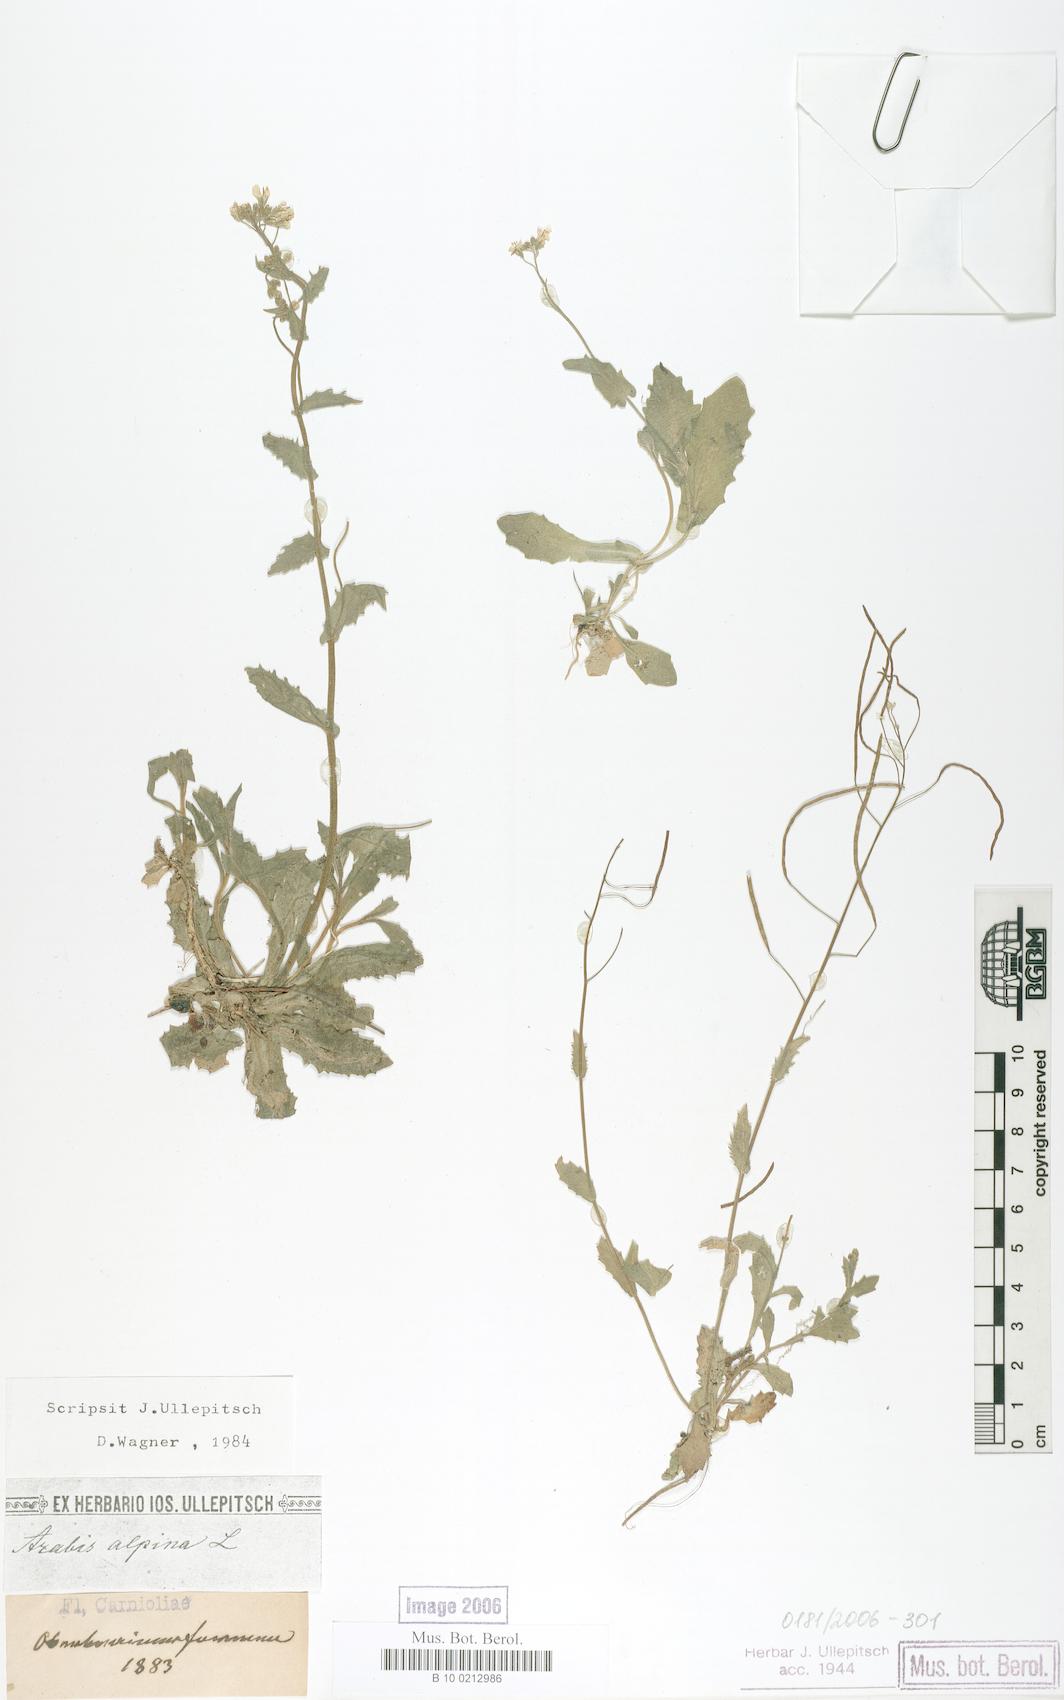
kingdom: Plantae
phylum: Tracheophyta
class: Magnoliopsida
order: Brassicales
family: Brassicaceae
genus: Arabis
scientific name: Arabis alpina
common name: Alpine rock-cress
